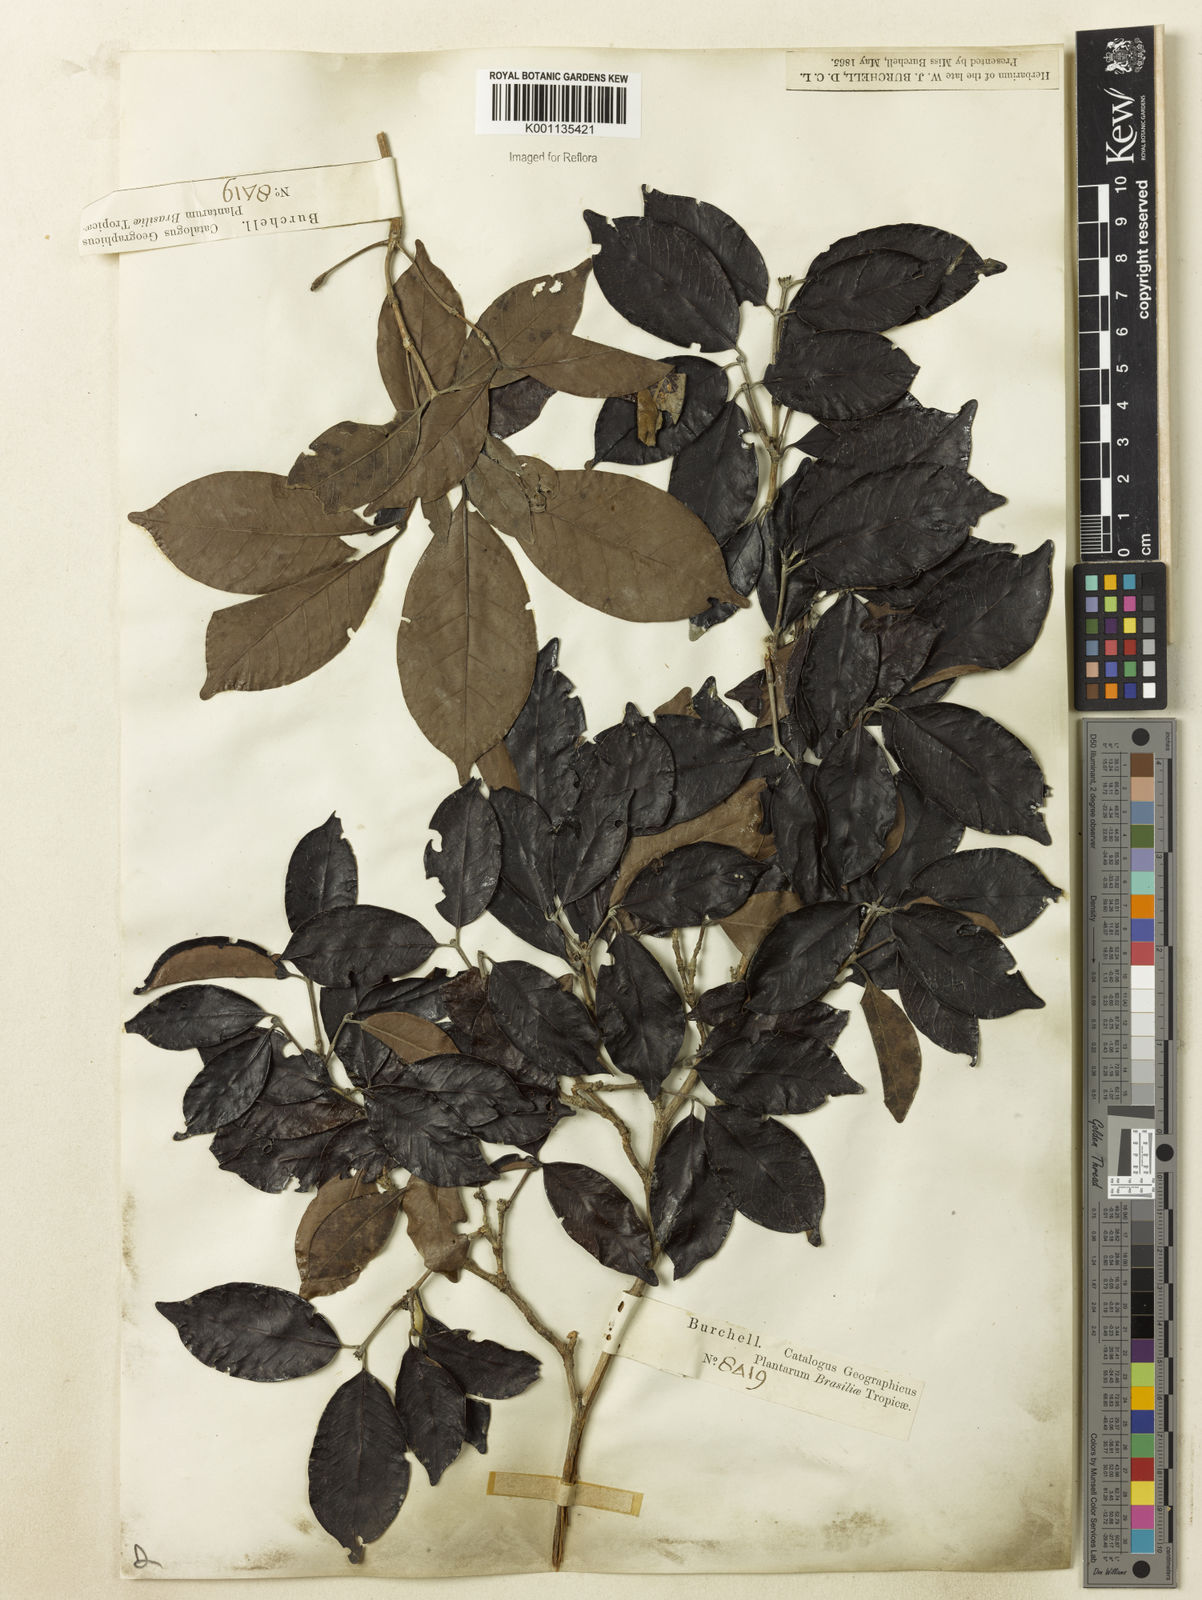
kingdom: Plantae
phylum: Tracheophyta
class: Magnoliopsida
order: Gentianales
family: Rubiaceae
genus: Cordiera
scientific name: Cordiera myrciifolia
